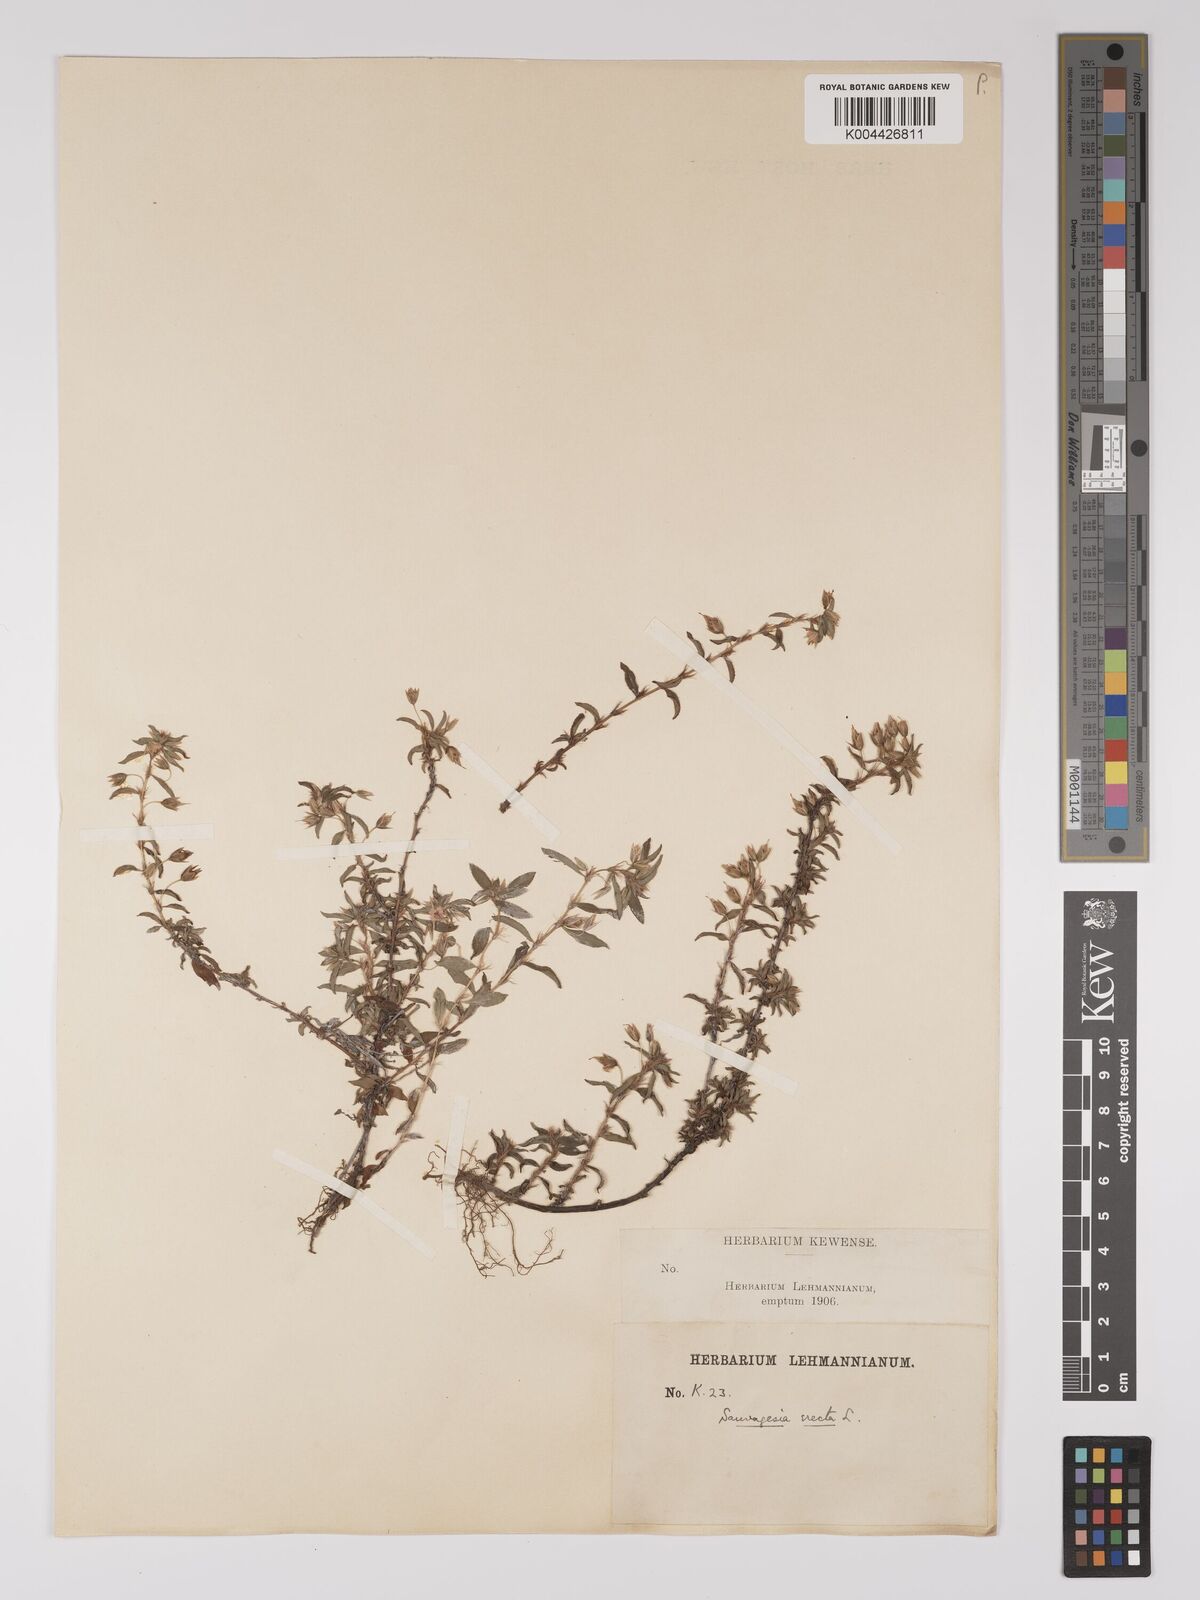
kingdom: Plantae
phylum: Tracheophyta
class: Magnoliopsida
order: Malpighiales
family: Ochnaceae
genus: Sauvagesia
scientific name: Sauvagesia erecta
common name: Creole tea
